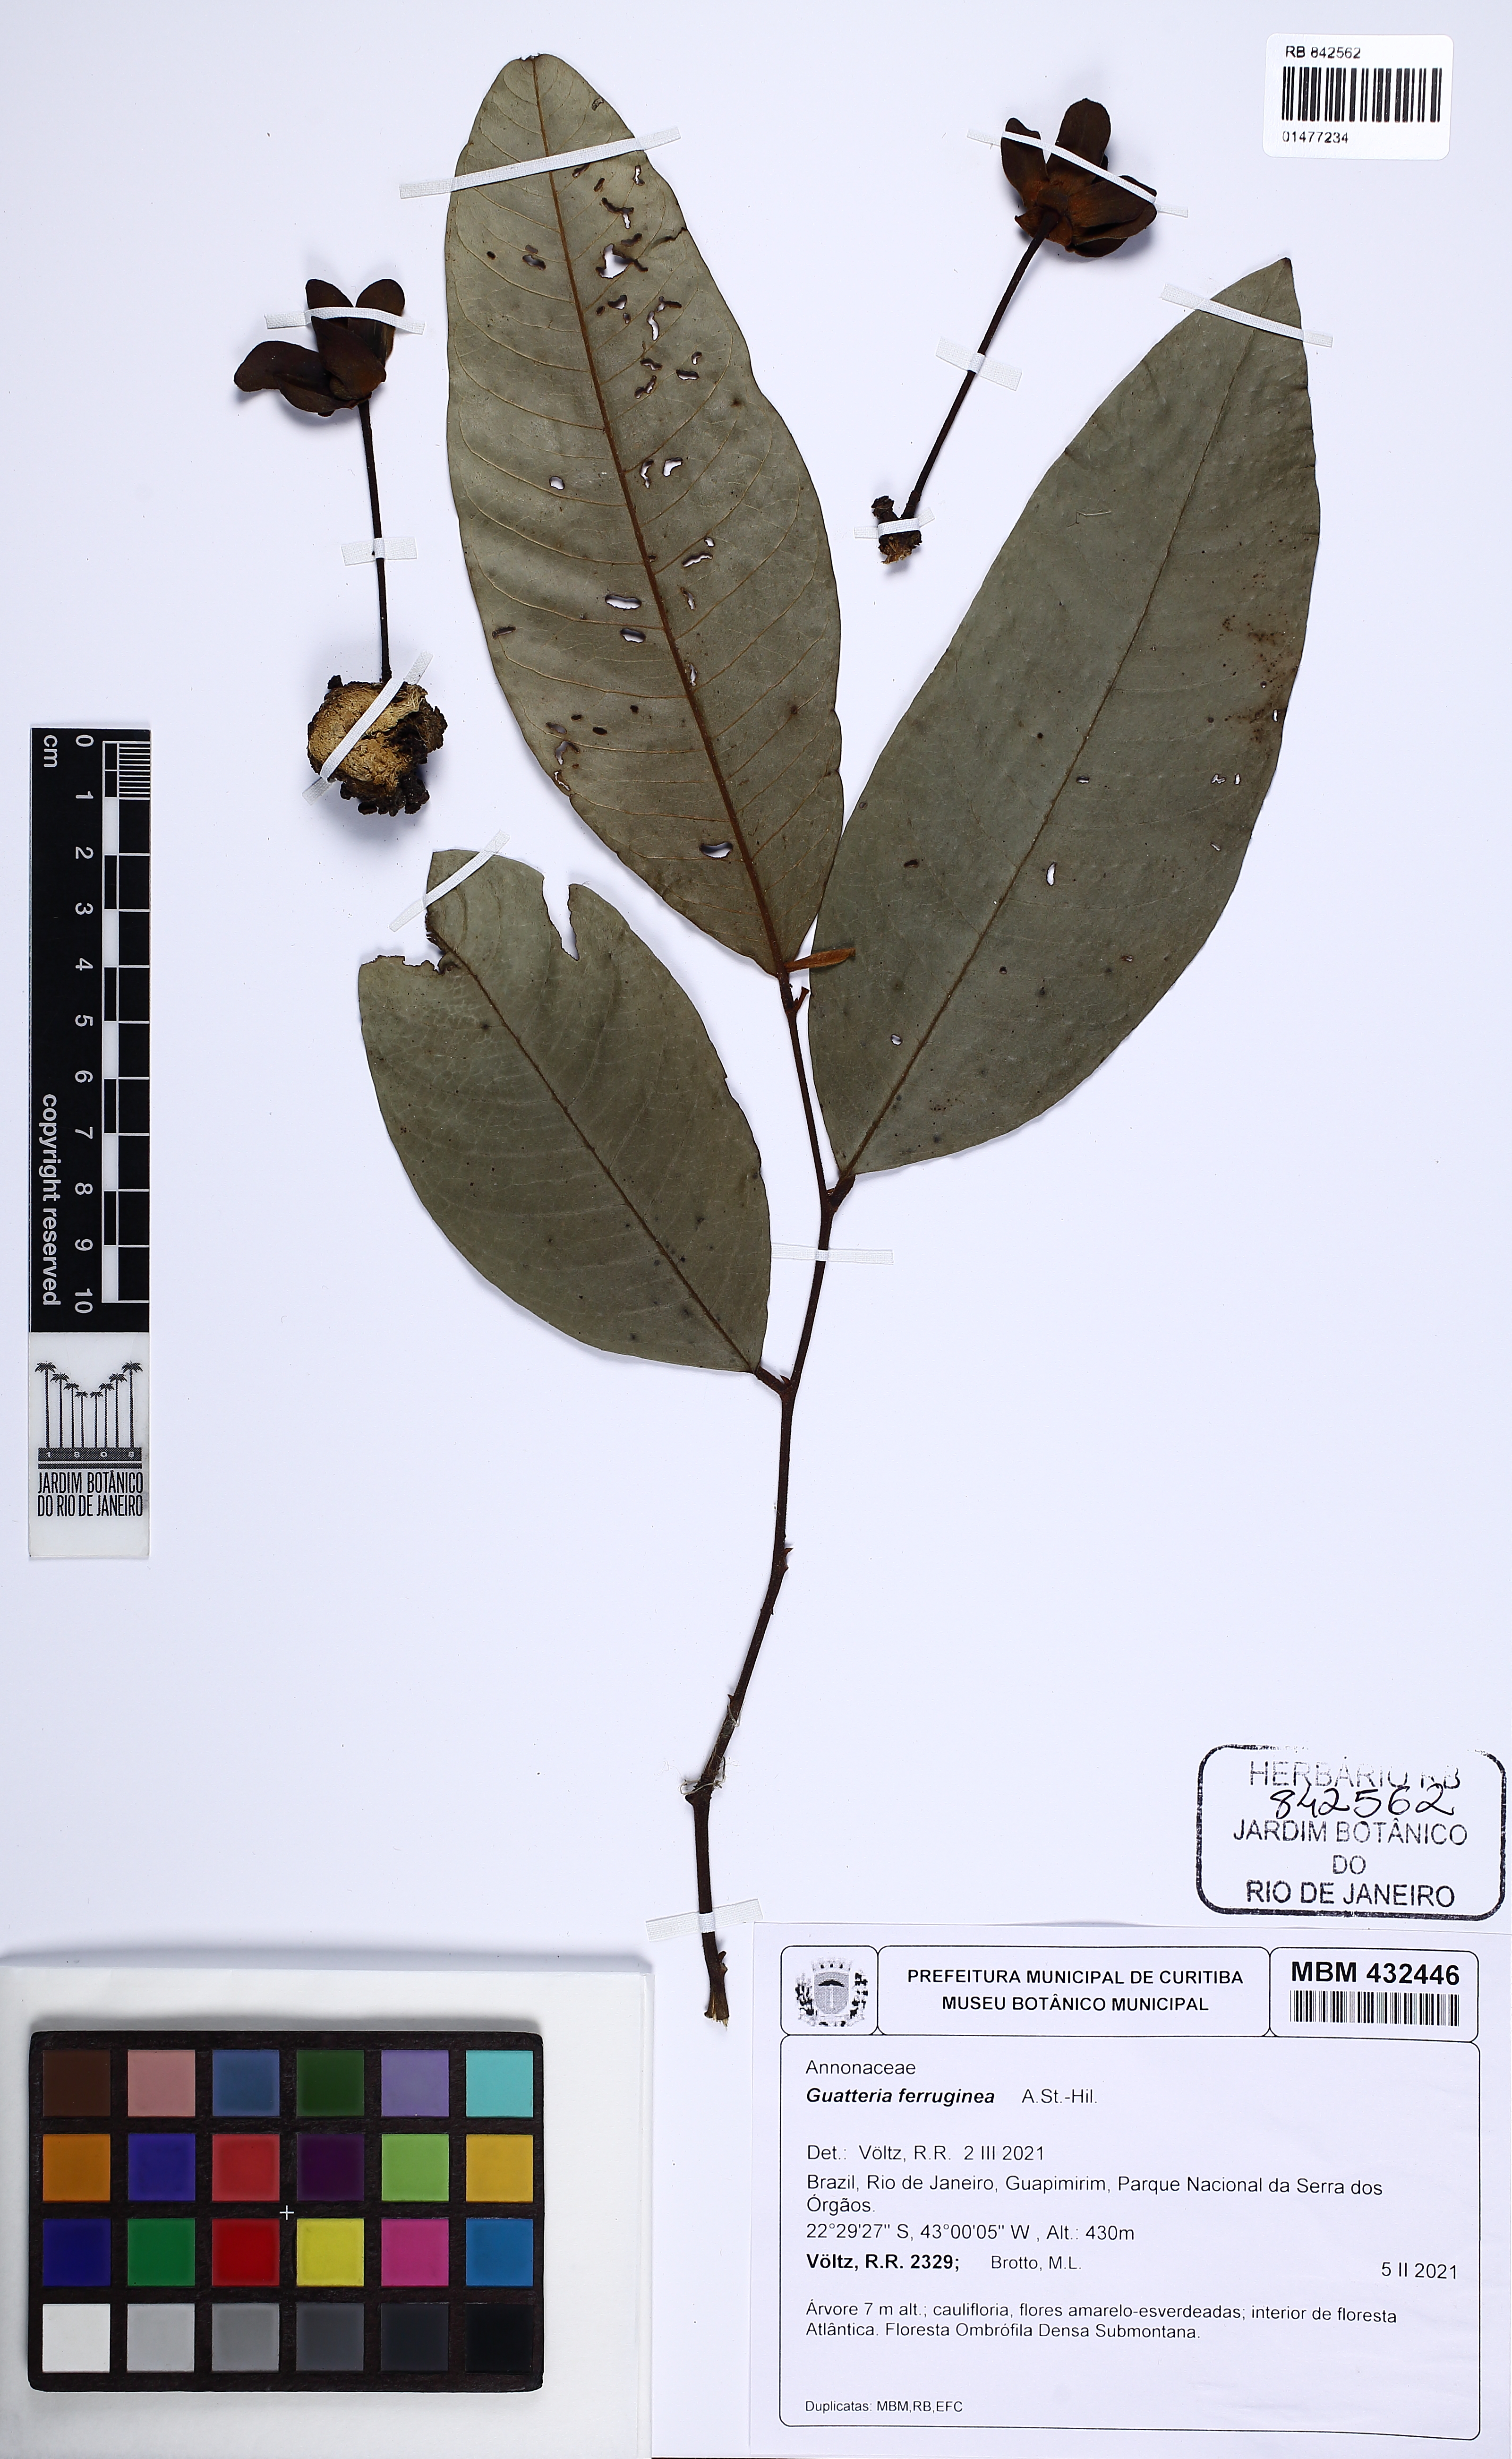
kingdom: Plantae
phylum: Tracheophyta
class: Magnoliopsida
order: Magnoliales
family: Annonaceae
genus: Guatteria
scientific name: Guatteria ferruginea
